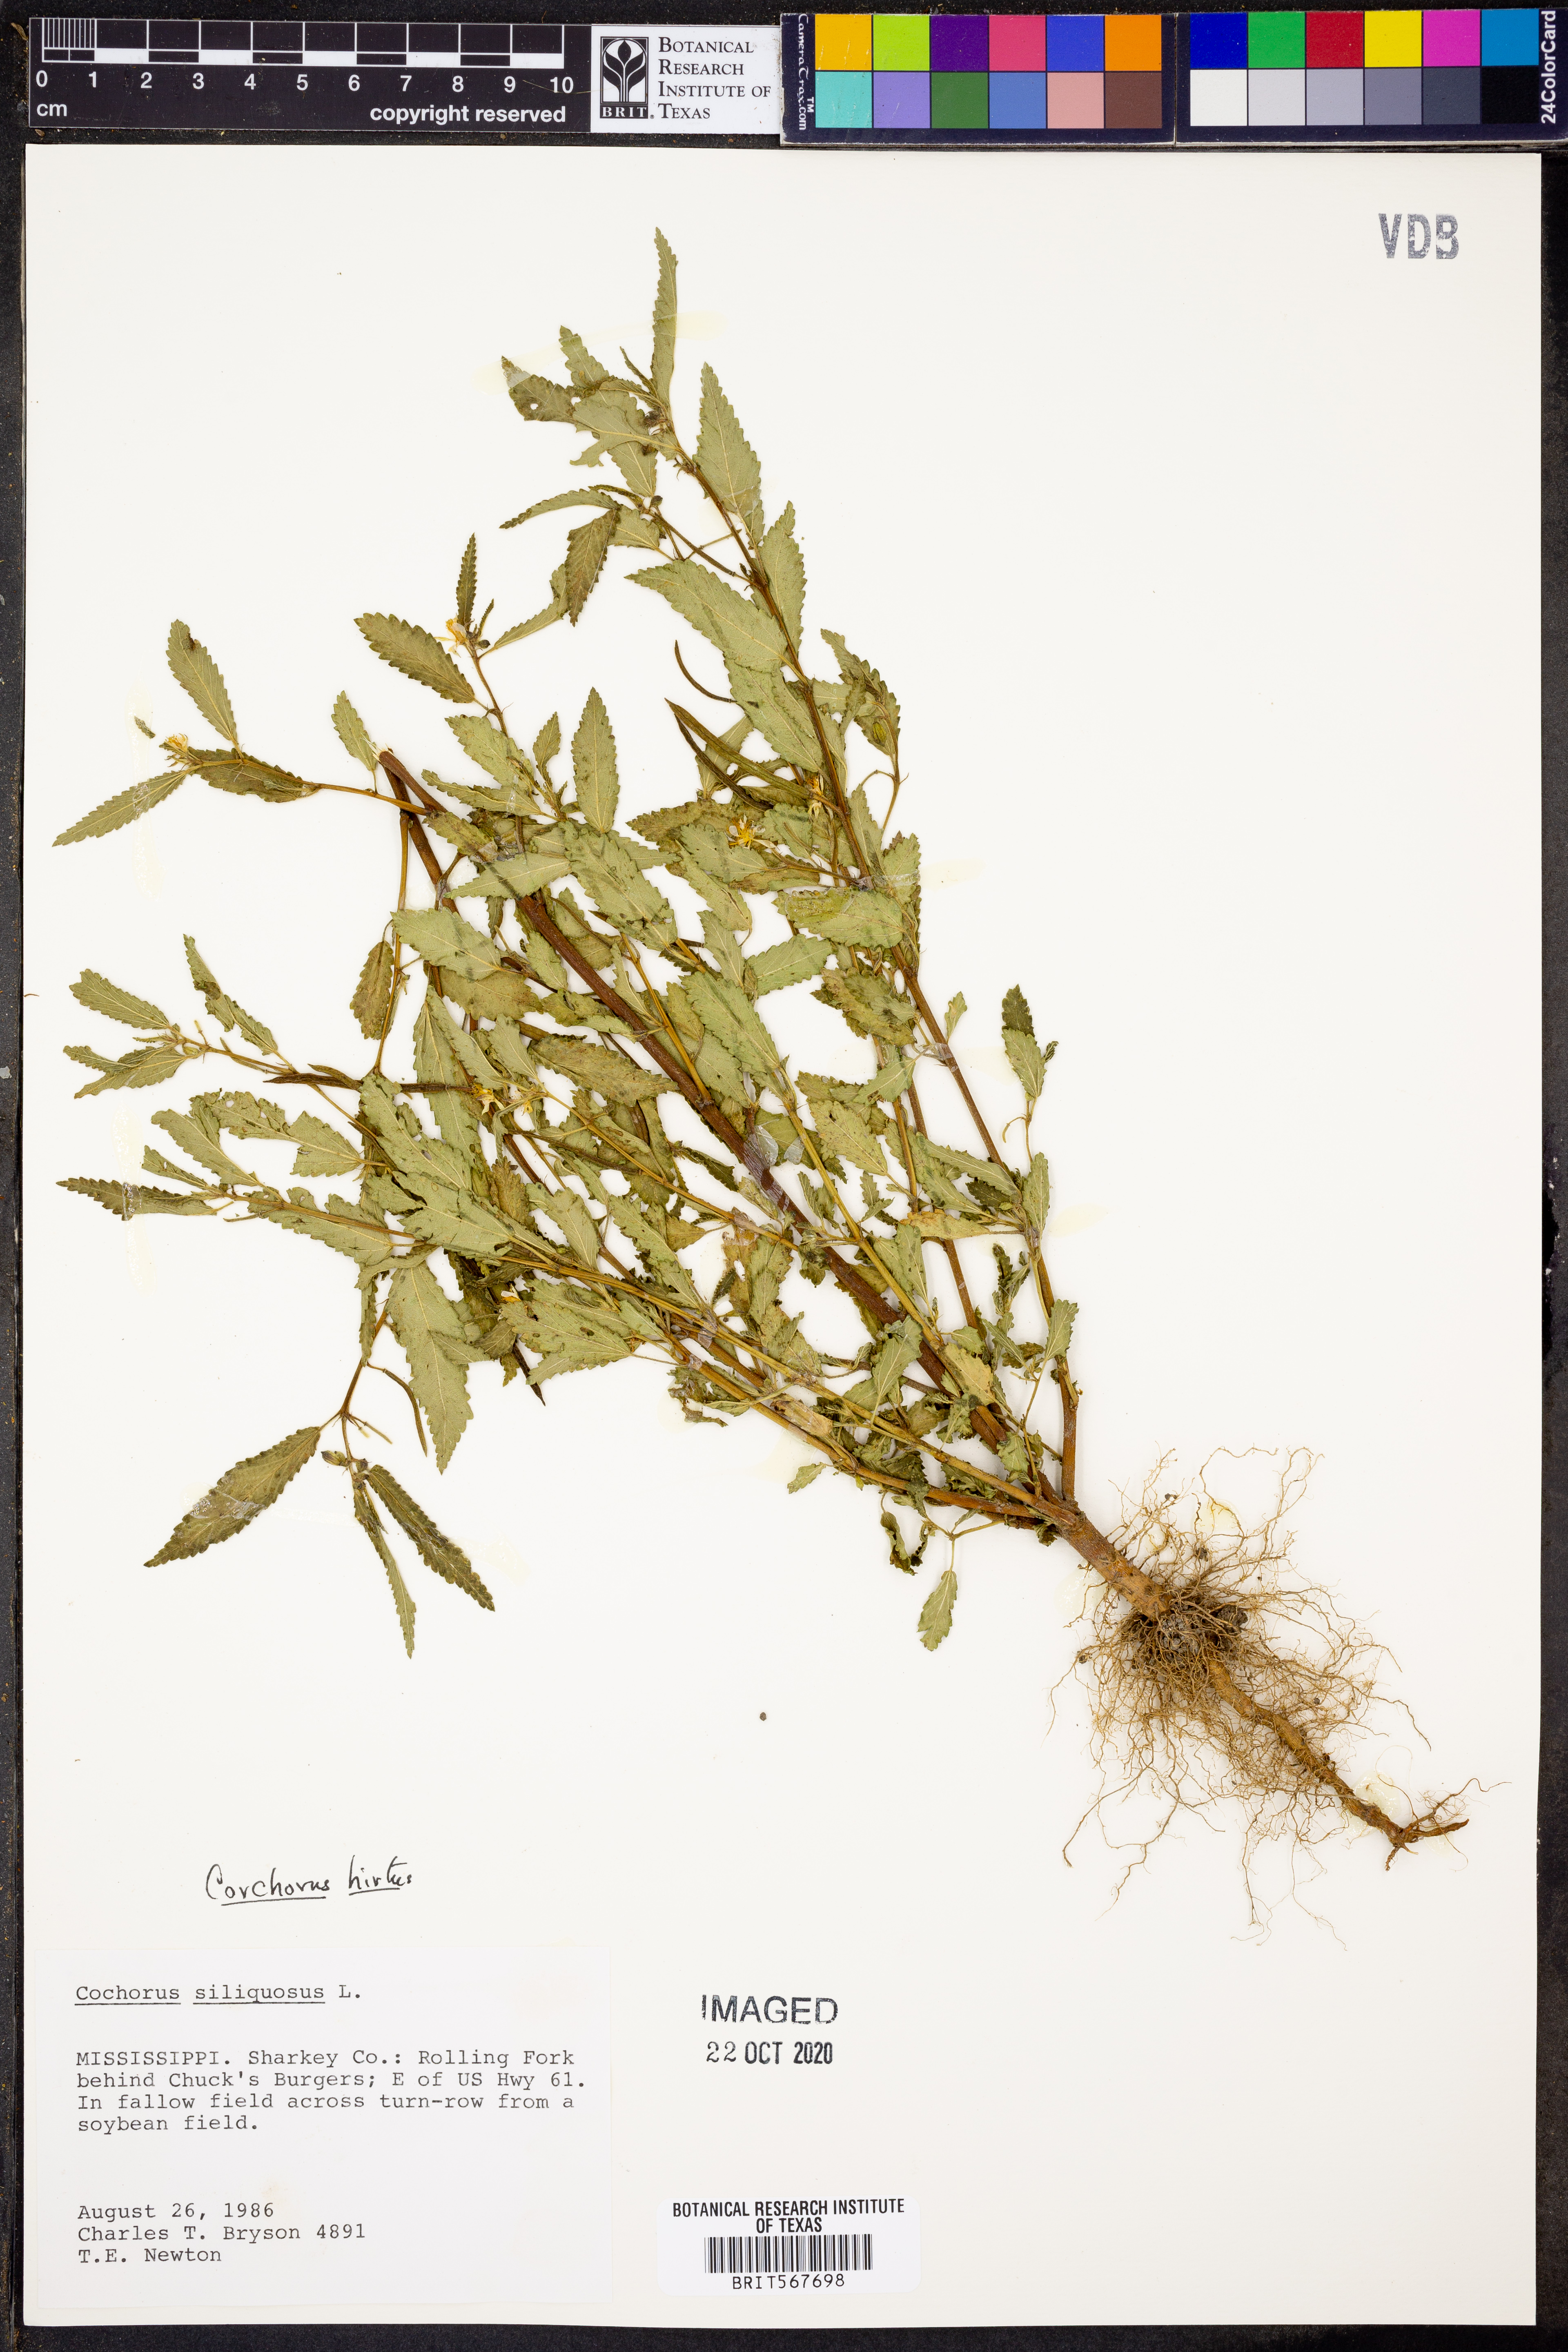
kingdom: Plantae
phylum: Tracheophyta
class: Magnoliopsida
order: Malvales
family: Malvaceae
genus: Corchorus
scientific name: Corchorus hirtus
